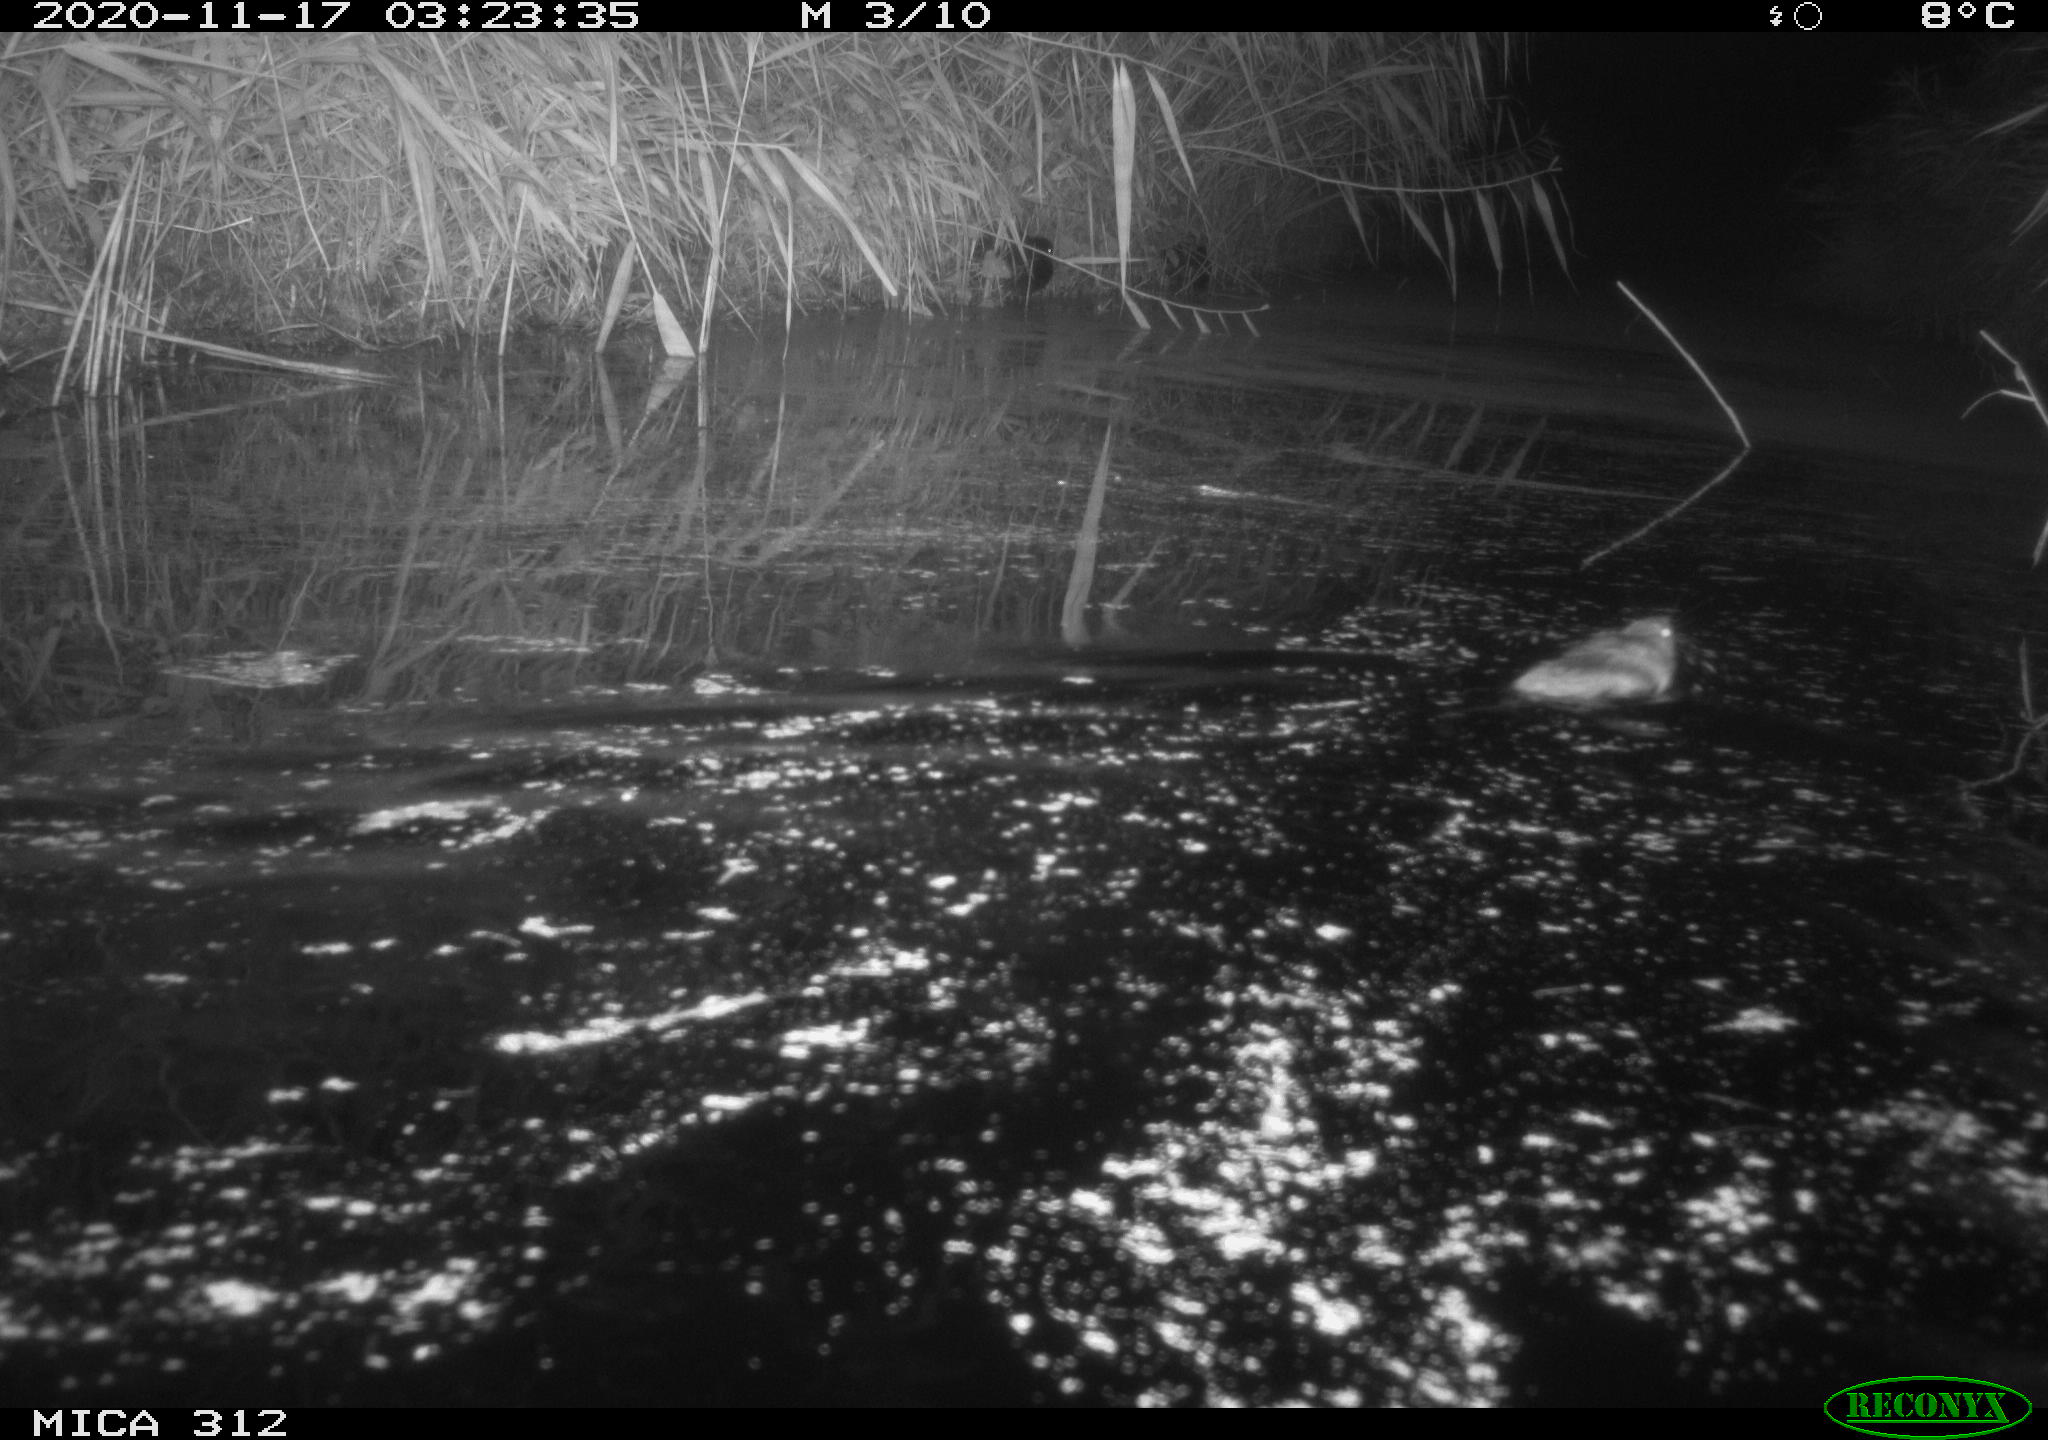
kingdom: Animalia
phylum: Chordata
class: Aves
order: Gruiformes
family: Rallidae
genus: Fulica
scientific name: Fulica atra
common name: Eurasian coot
